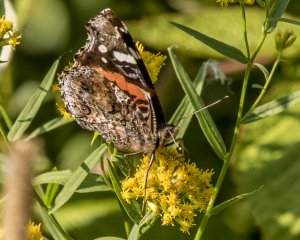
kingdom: Animalia
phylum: Arthropoda
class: Insecta
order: Lepidoptera
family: Nymphalidae
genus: Vanessa
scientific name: Vanessa atalanta
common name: Red Admiral
